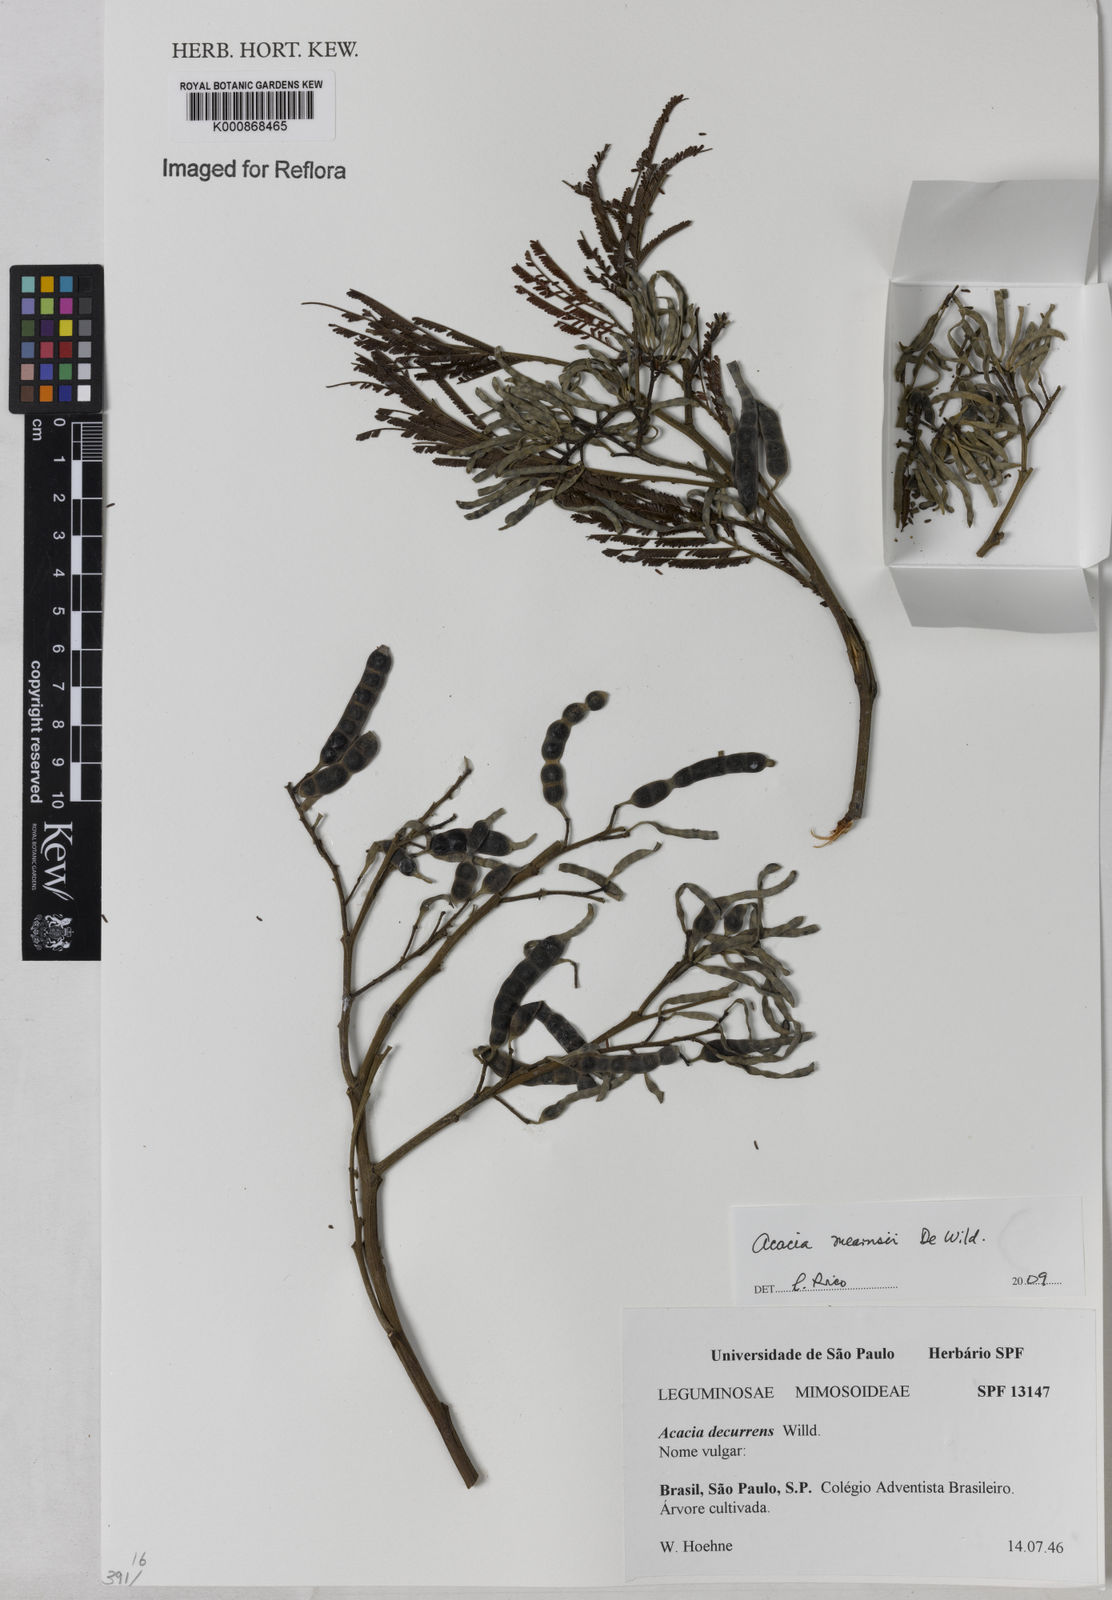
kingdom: Plantae
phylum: Tracheophyta
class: Magnoliopsida
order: Fabales
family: Fabaceae
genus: Acacia
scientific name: Acacia mearnsii
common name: Black wattle
